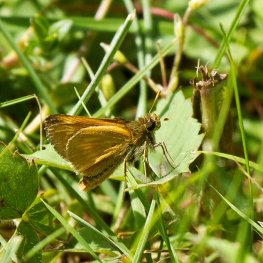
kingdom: Animalia
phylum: Arthropoda
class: Insecta
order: Lepidoptera
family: Hesperiidae
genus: Polites
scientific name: Polites
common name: Long Dash Skipper
